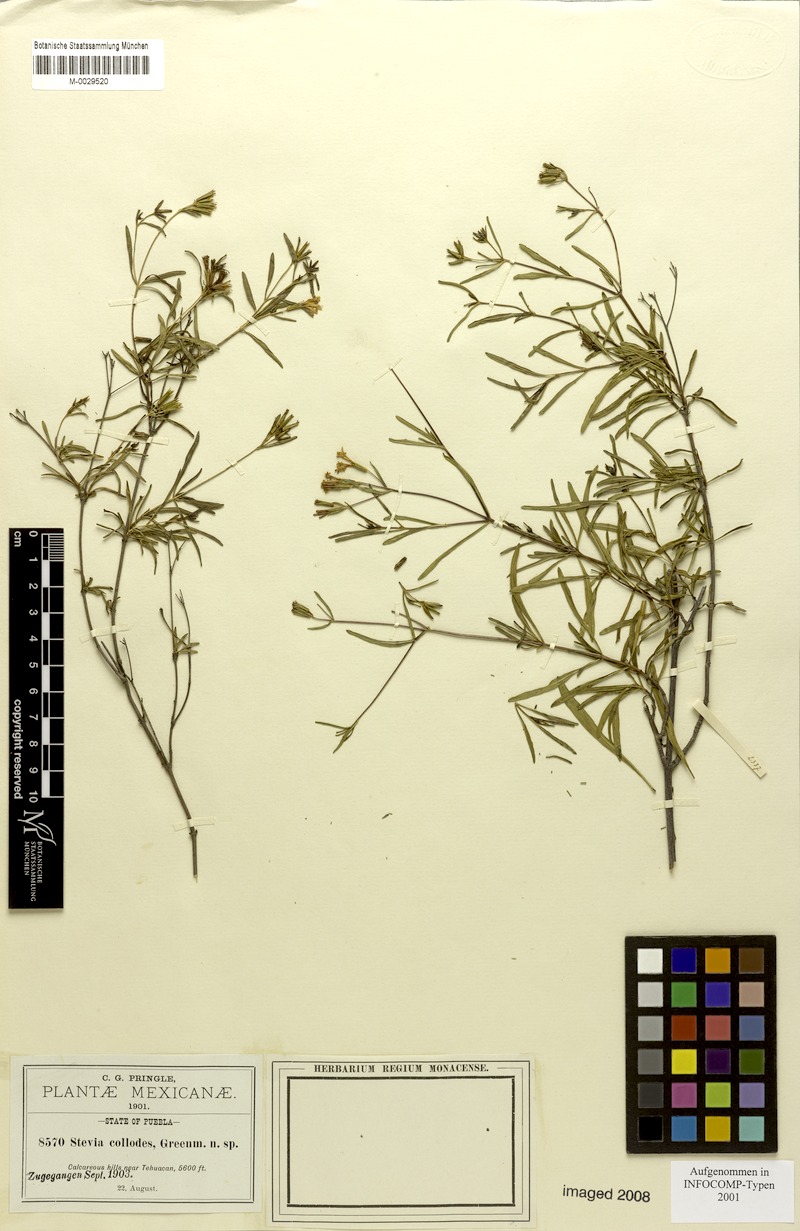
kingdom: Plantae
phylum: Tracheophyta
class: Magnoliopsida
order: Asterales
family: Asteraceae
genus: Stevia
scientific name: Stevia salicifolia
